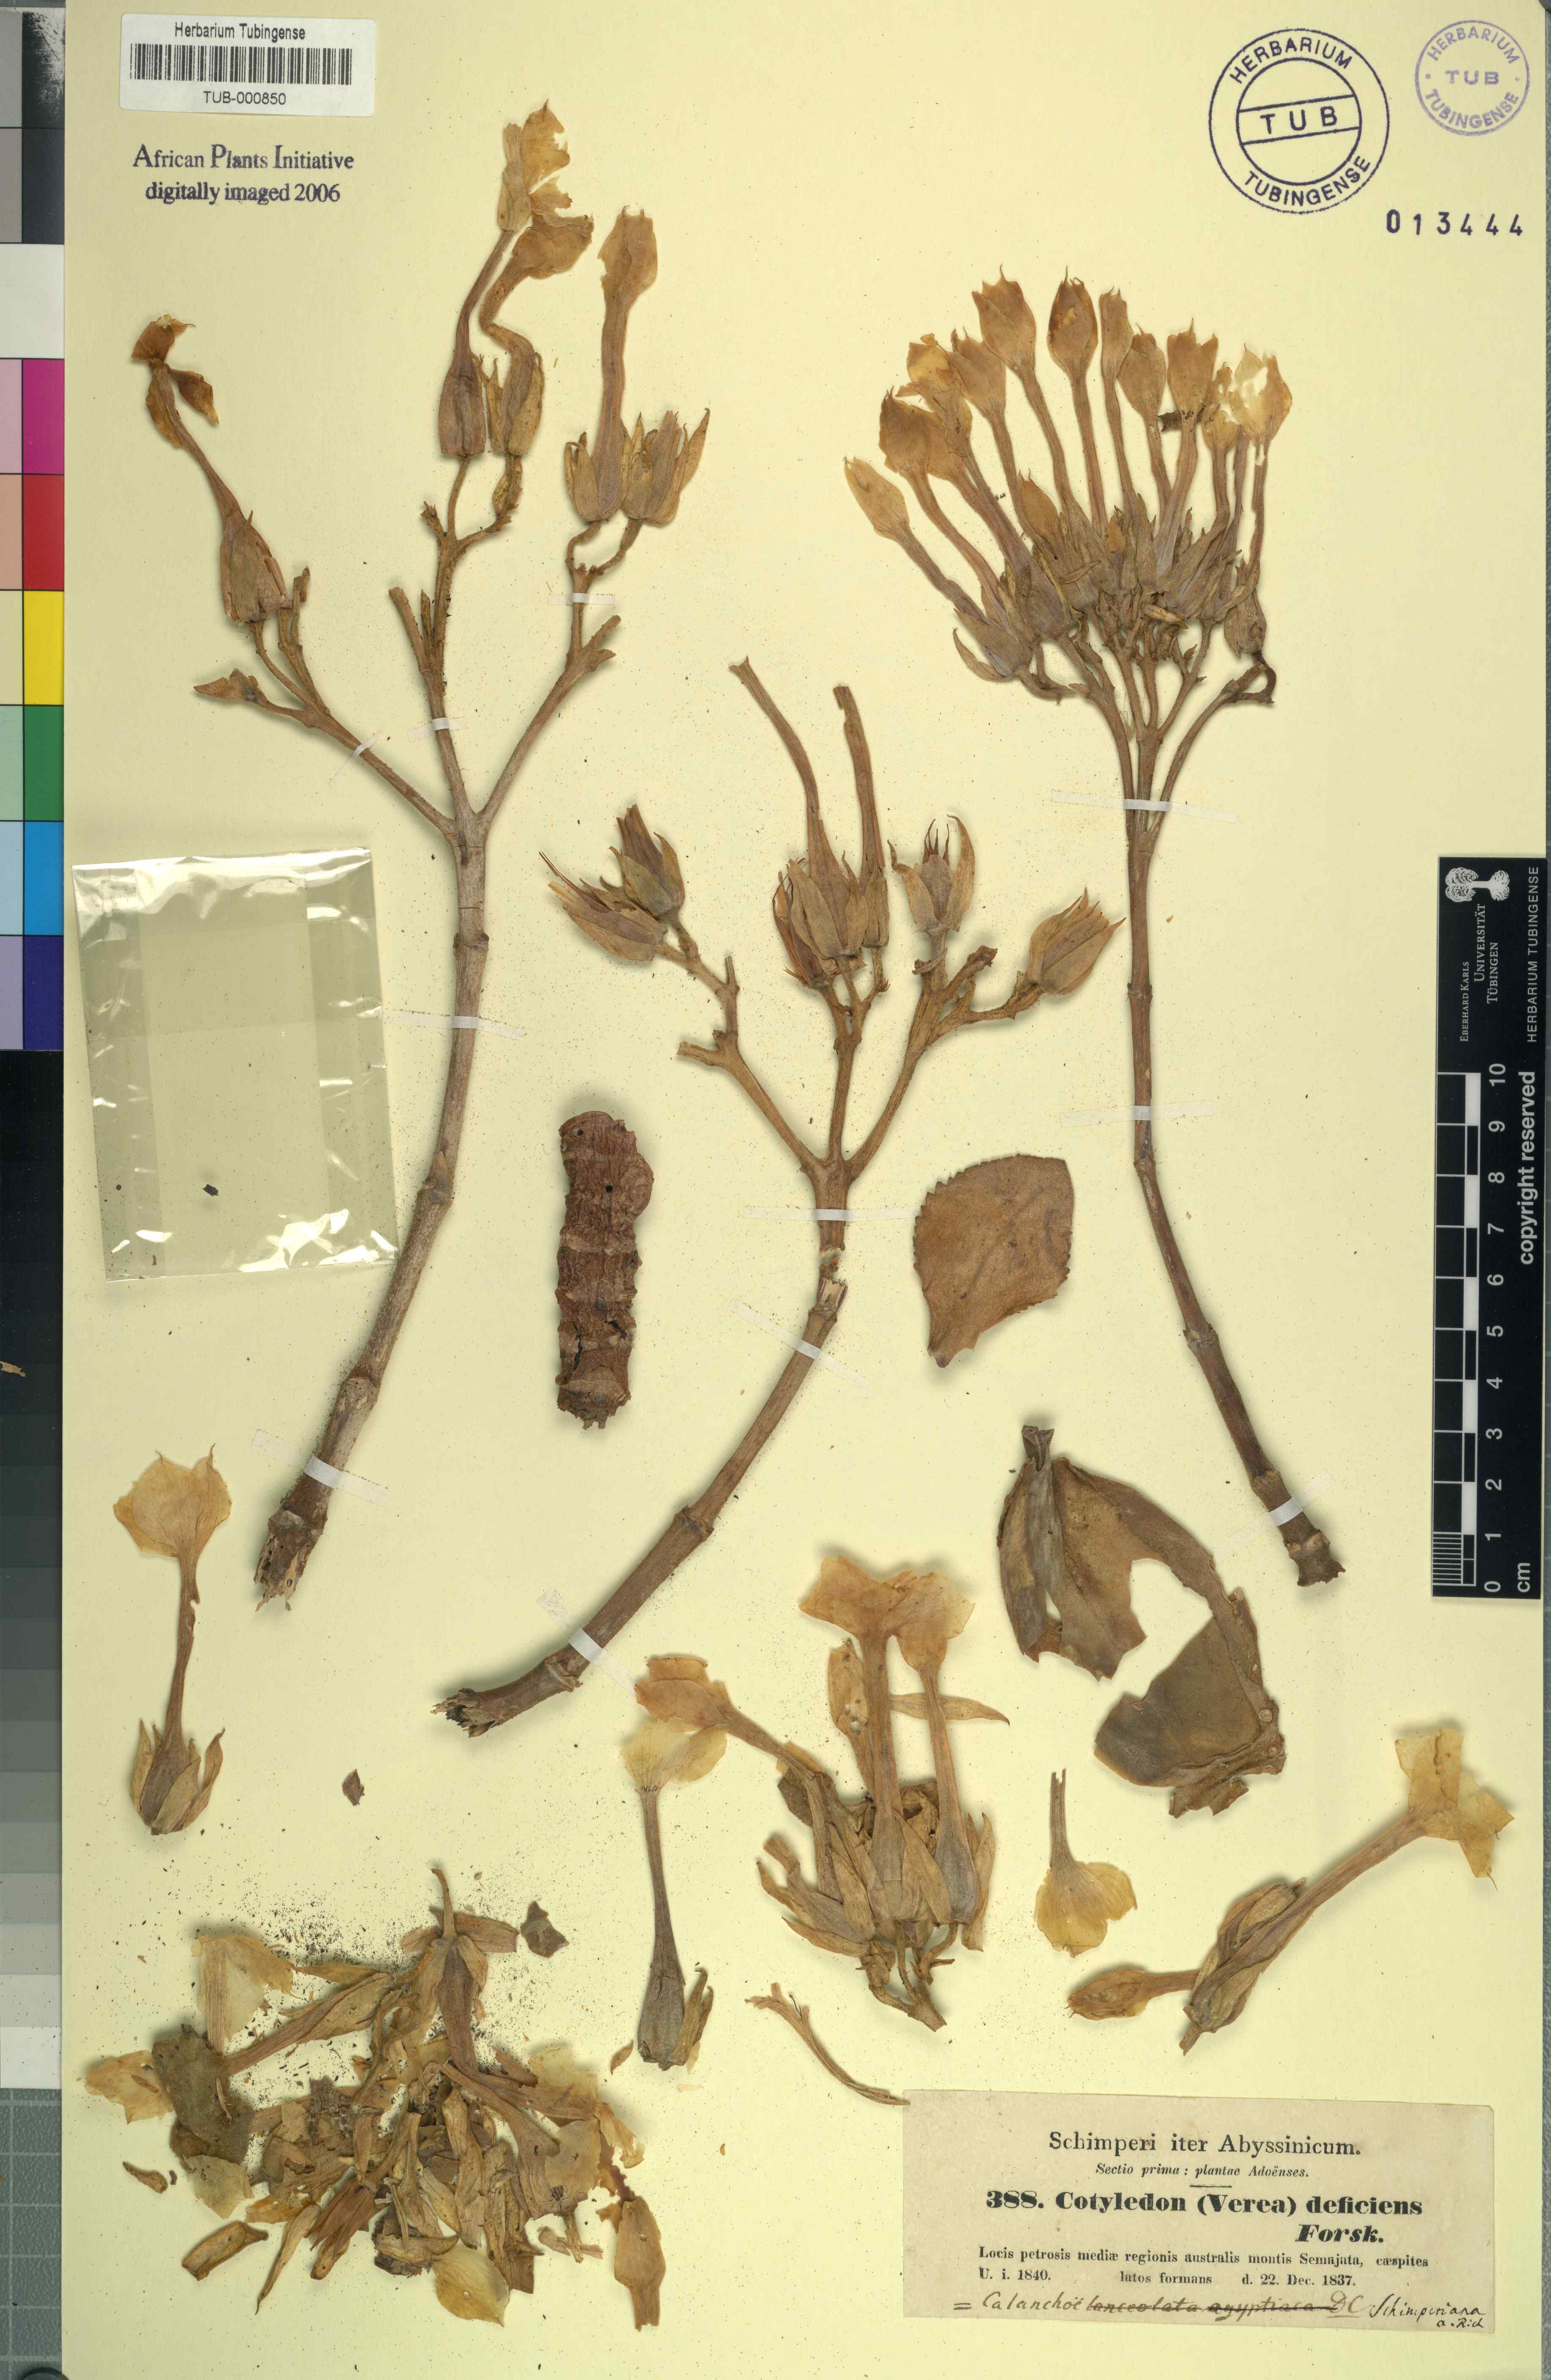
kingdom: Plantae
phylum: Tracheophyta
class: Magnoliopsida
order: Saxifragales
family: Crassulaceae
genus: Kalanchoe
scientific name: Kalanchoe crenata
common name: Neverdie
